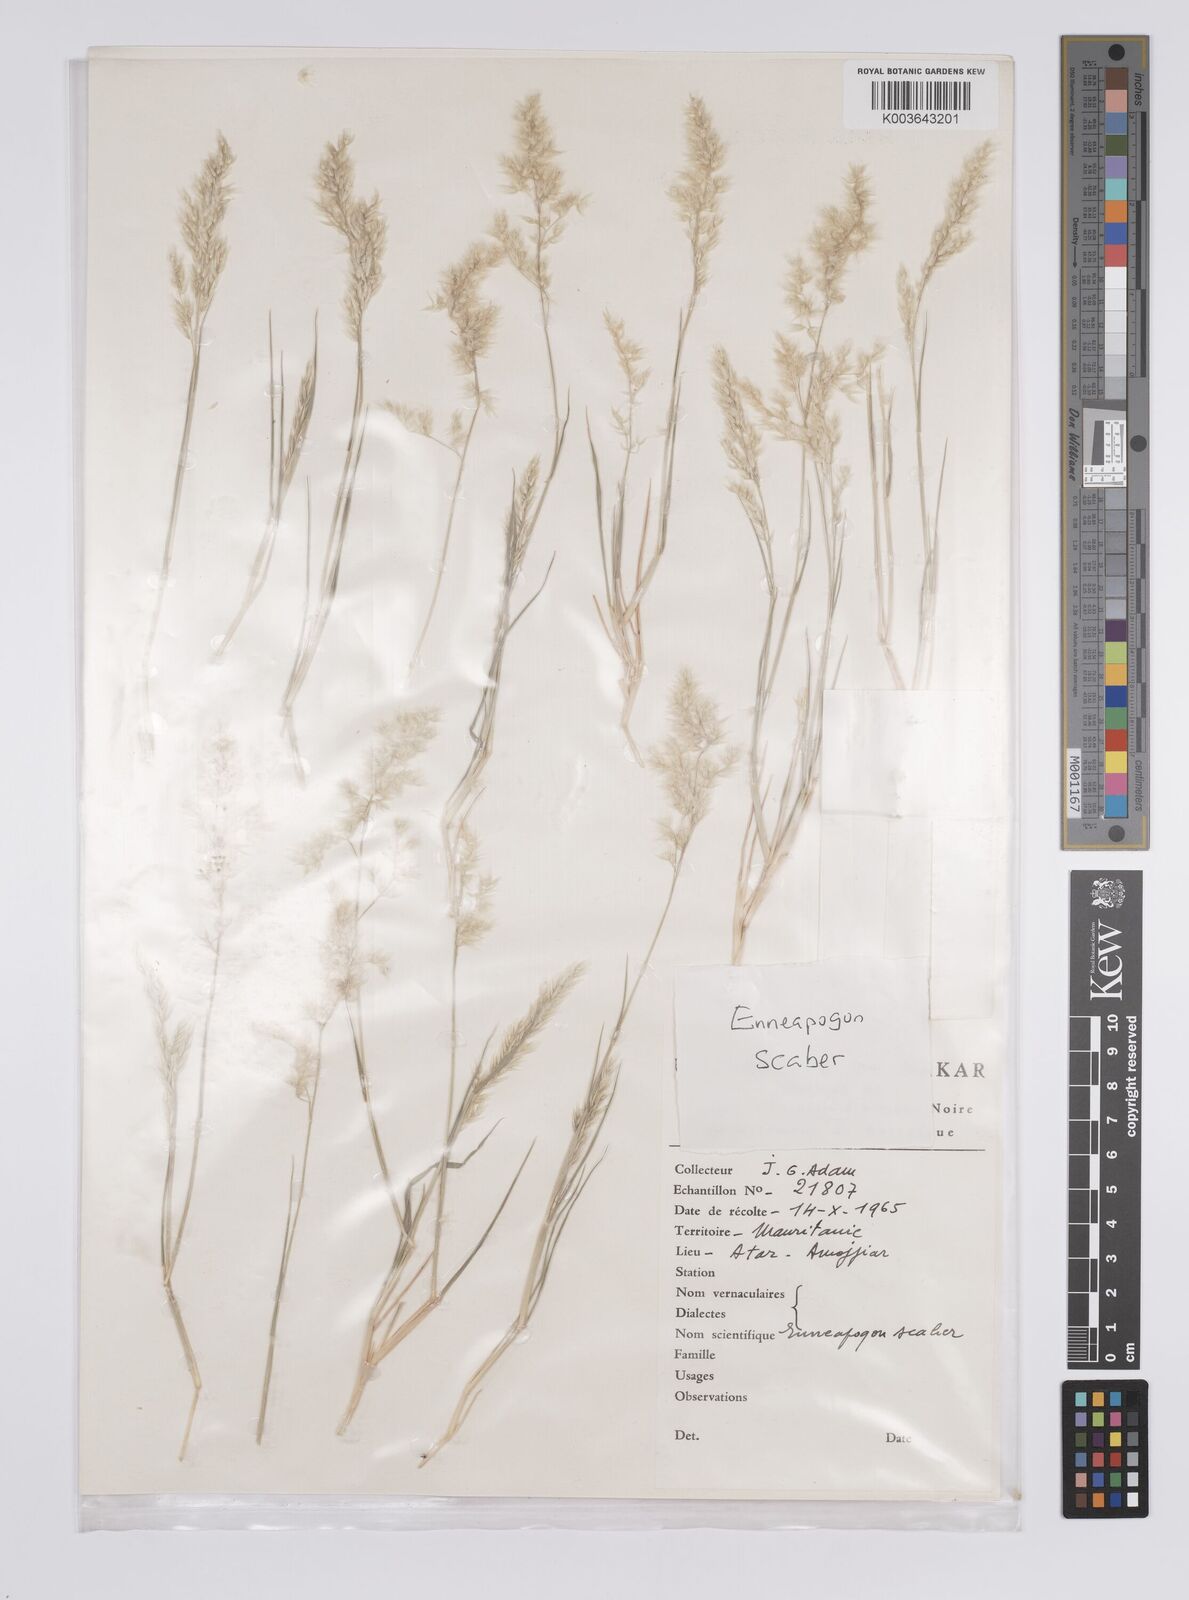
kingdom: Plantae
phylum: Tracheophyta
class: Liliopsida
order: Poales
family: Poaceae
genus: Enneapogon
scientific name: Enneapogon scaber
